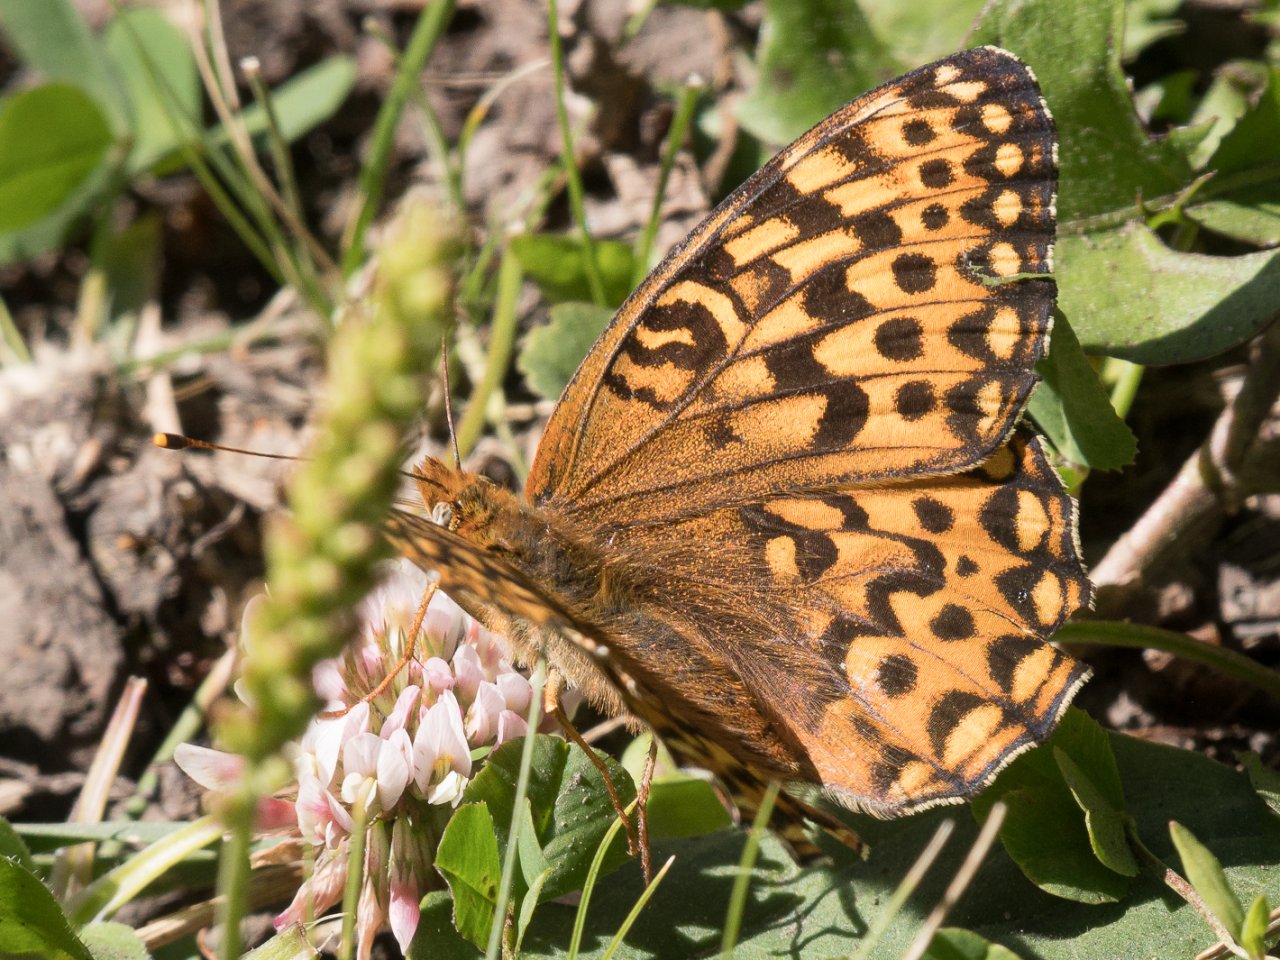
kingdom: Animalia
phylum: Arthropoda
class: Insecta
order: Lepidoptera
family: Nymphalidae
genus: Speyeria
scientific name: Speyeria hydaspe
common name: Hydaspe Fritillary
